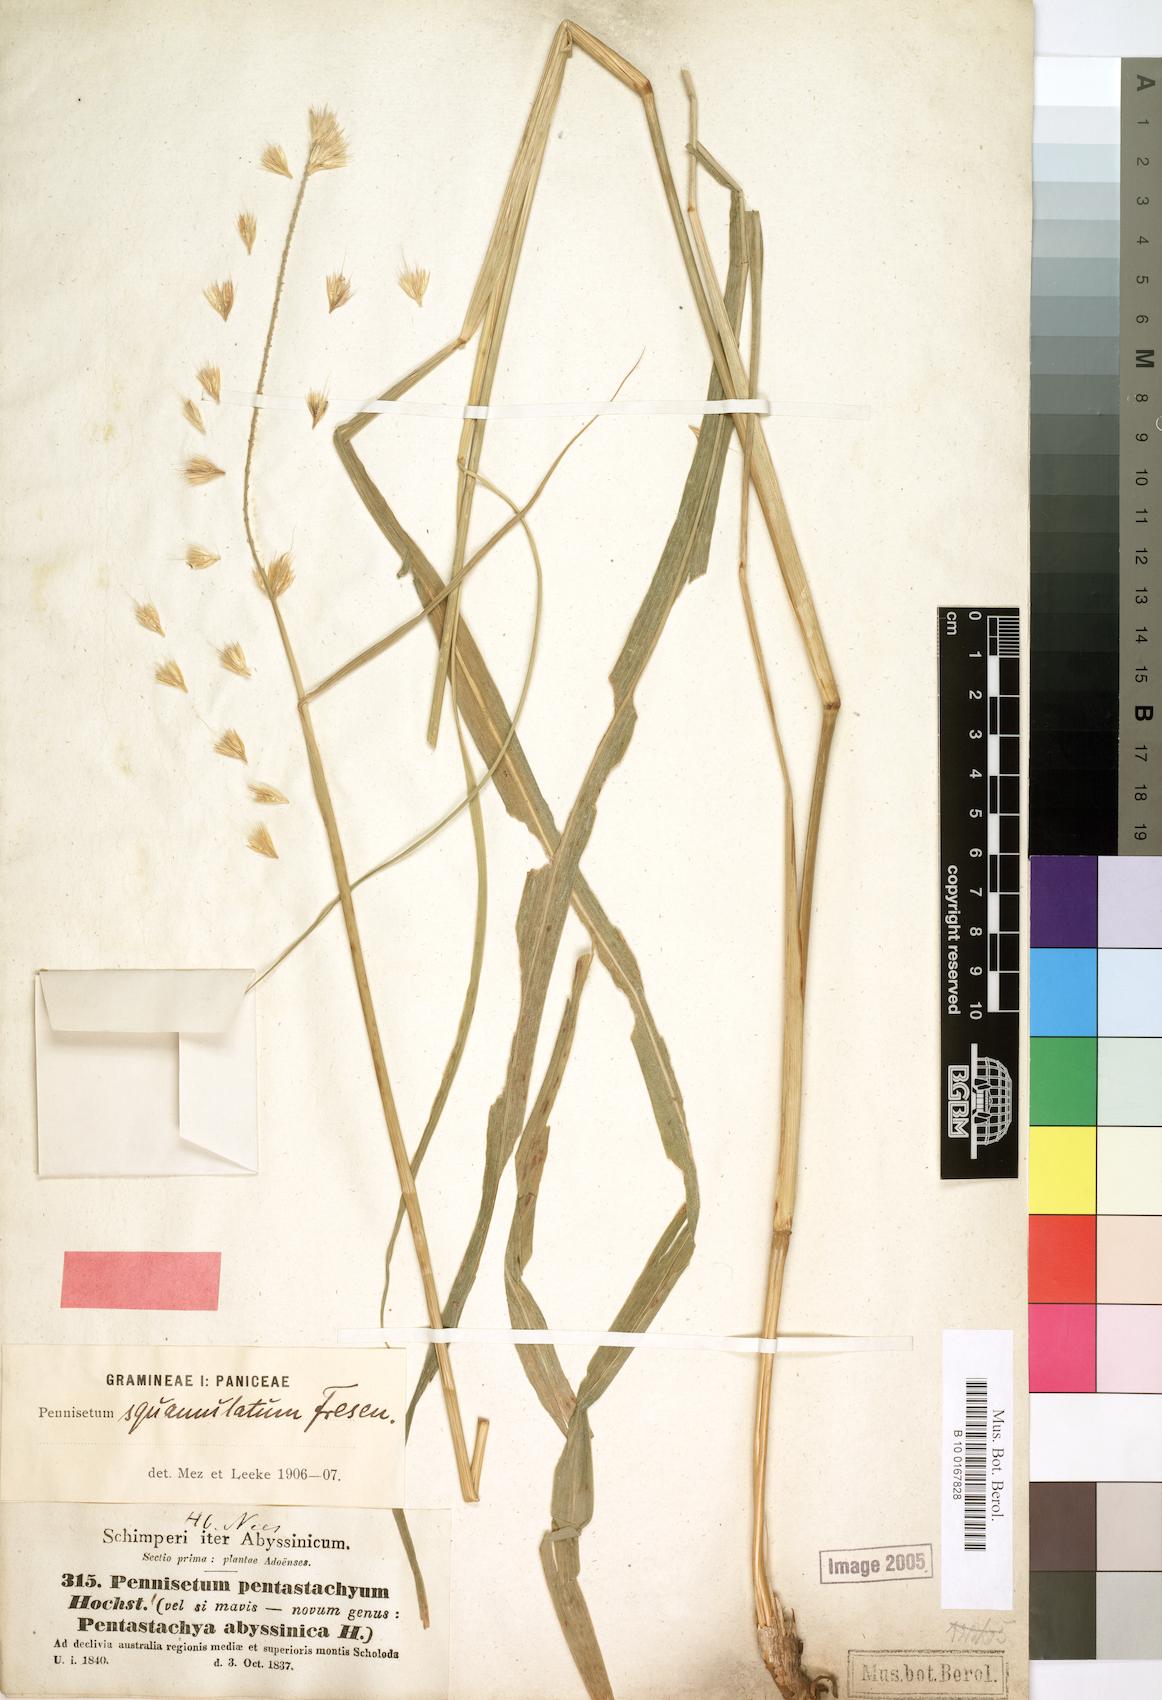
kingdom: Plantae
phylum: Tracheophyta
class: Liliopsida
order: Poales
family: Poaceae
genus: Cenchrus
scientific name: Cenchrus squamulatus
